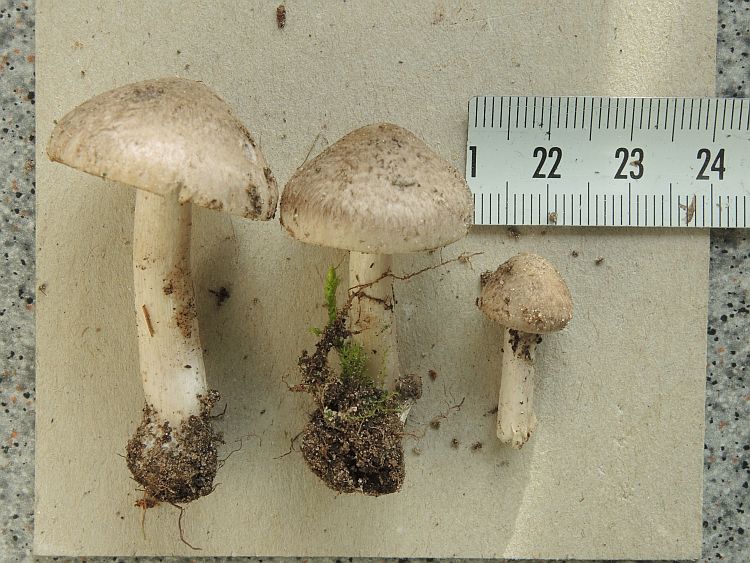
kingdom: Fungi
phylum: Basidiomycota
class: Agaricomycetes
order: Agaricales
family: Tricholomataceae
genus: Tricholoma
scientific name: Tricholoma scalpturatum
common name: gulplettet ridderhat
